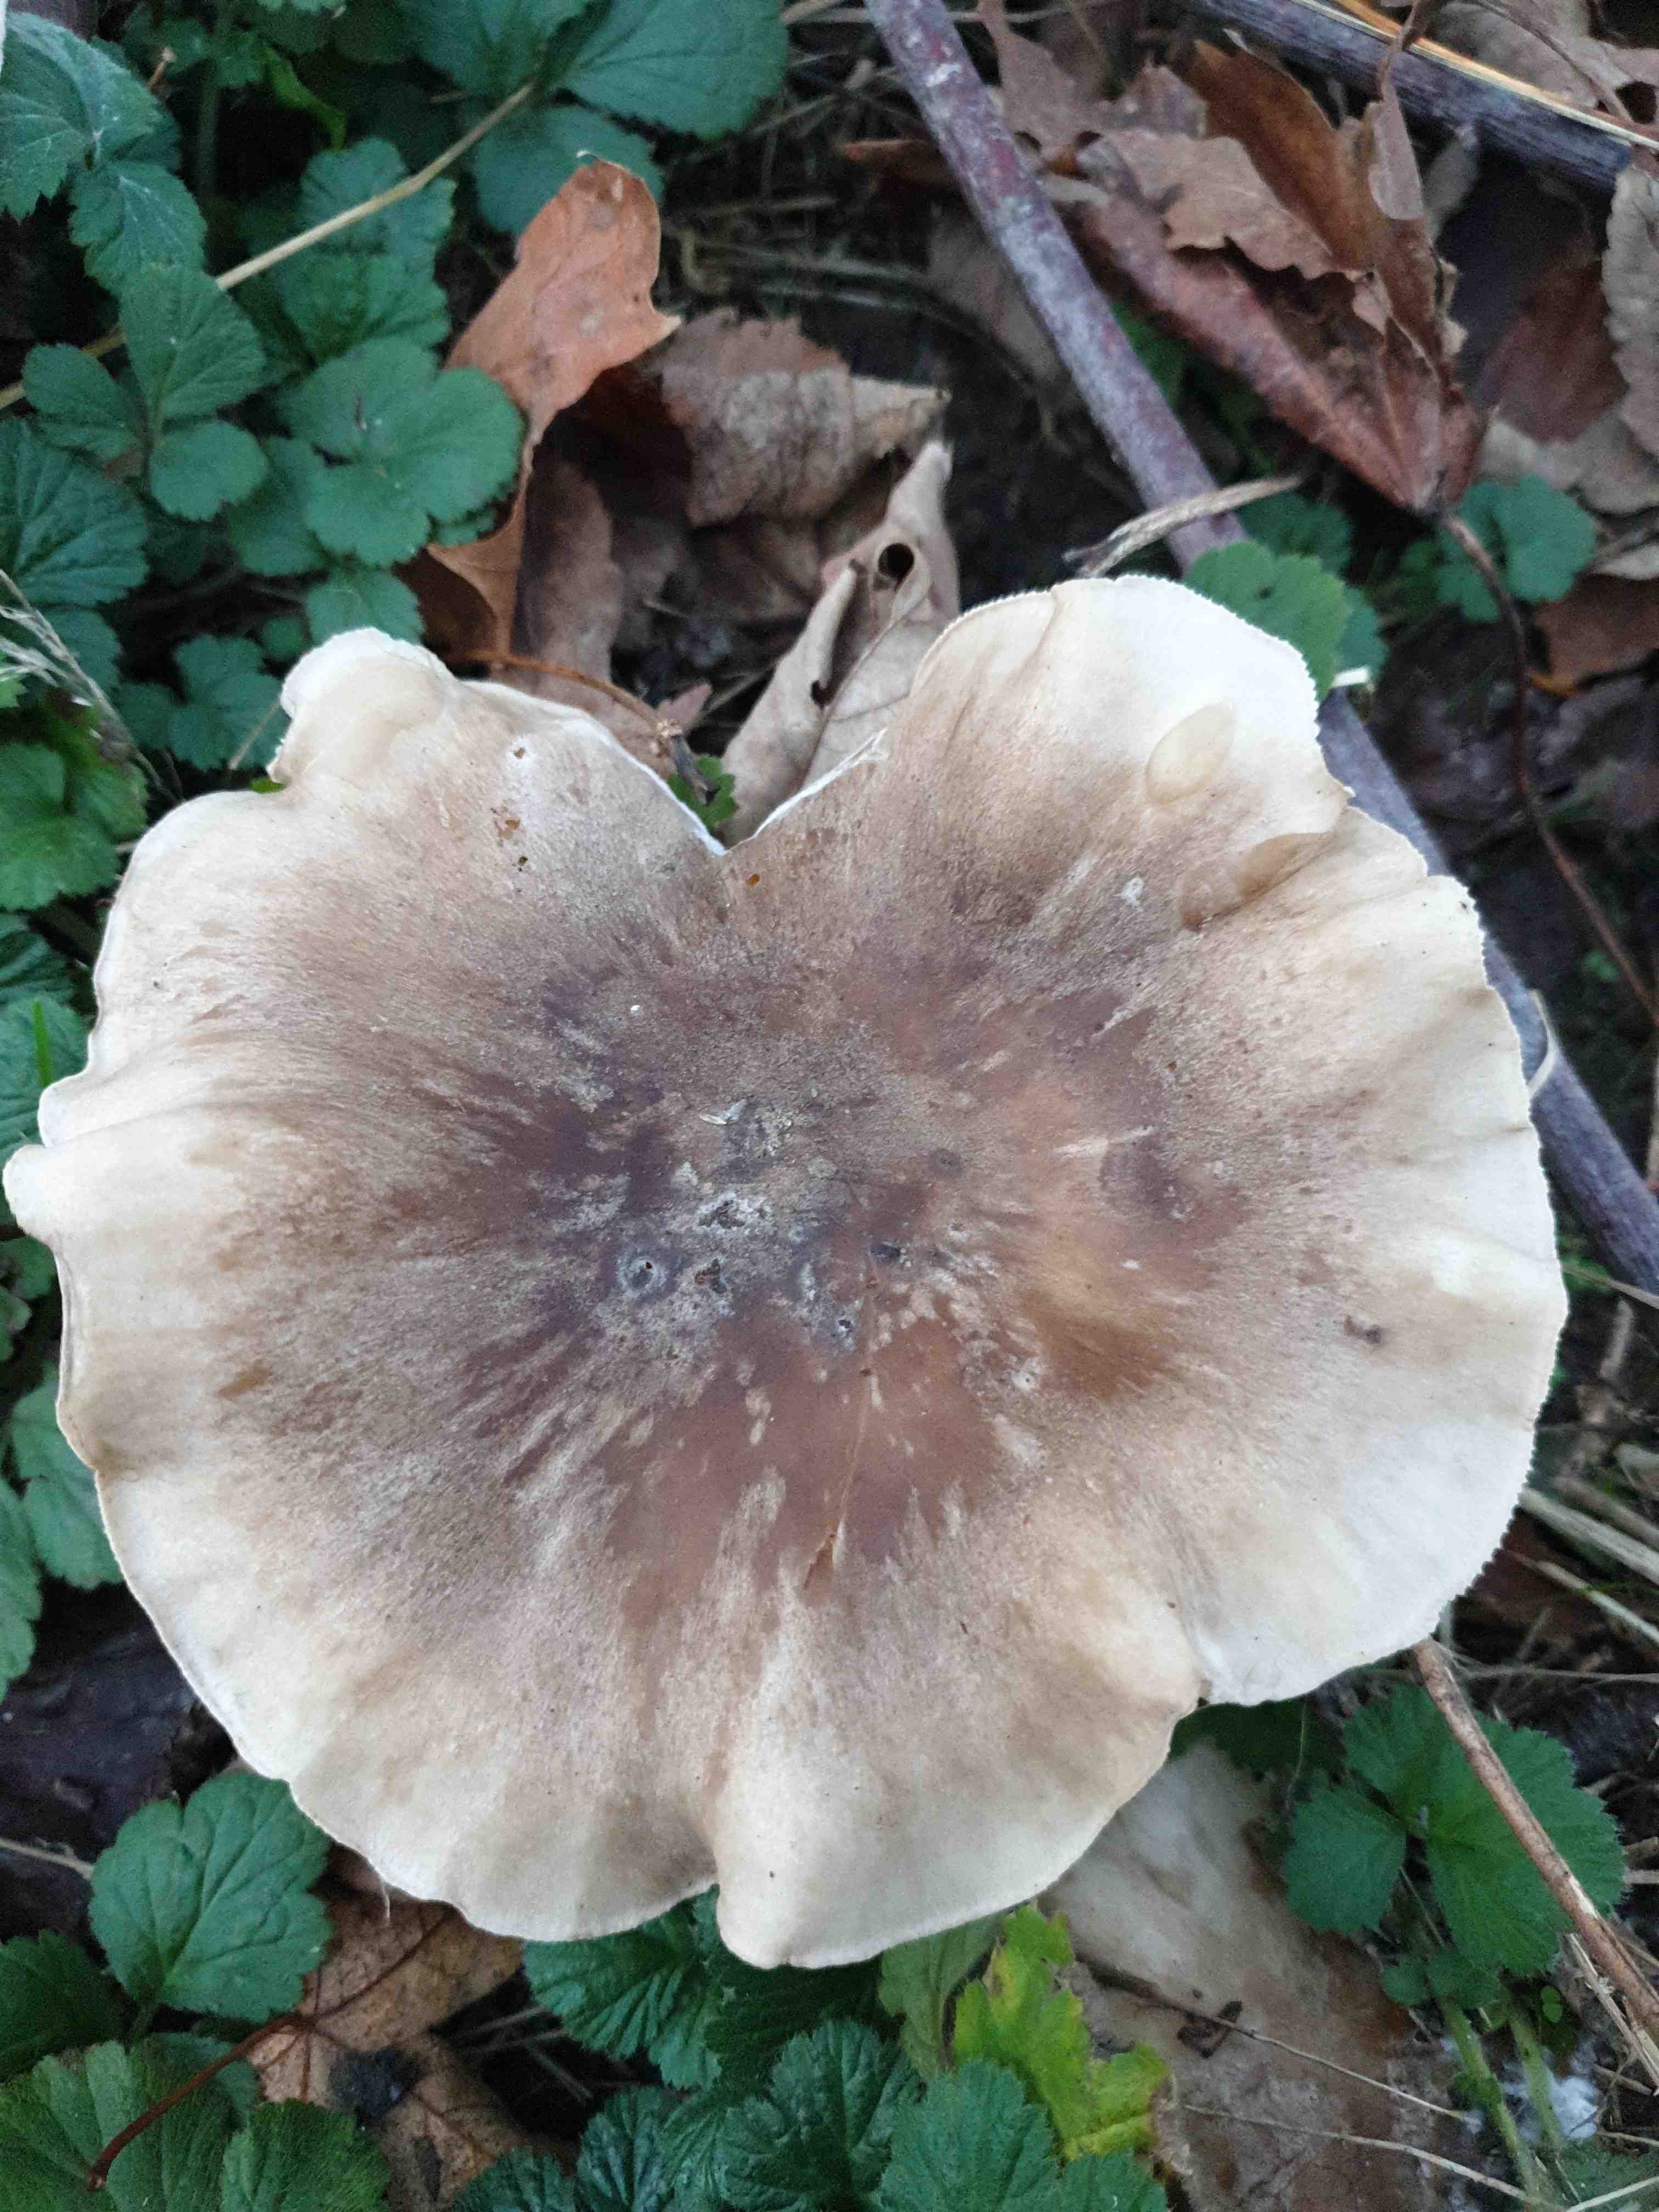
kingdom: Fungi
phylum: Basidiomycota
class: Agaricomycetes
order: Agaricales
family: Tricholomataceae
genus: Clitocybe
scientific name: Clitocybe nebularis
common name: tåge-tragthat
